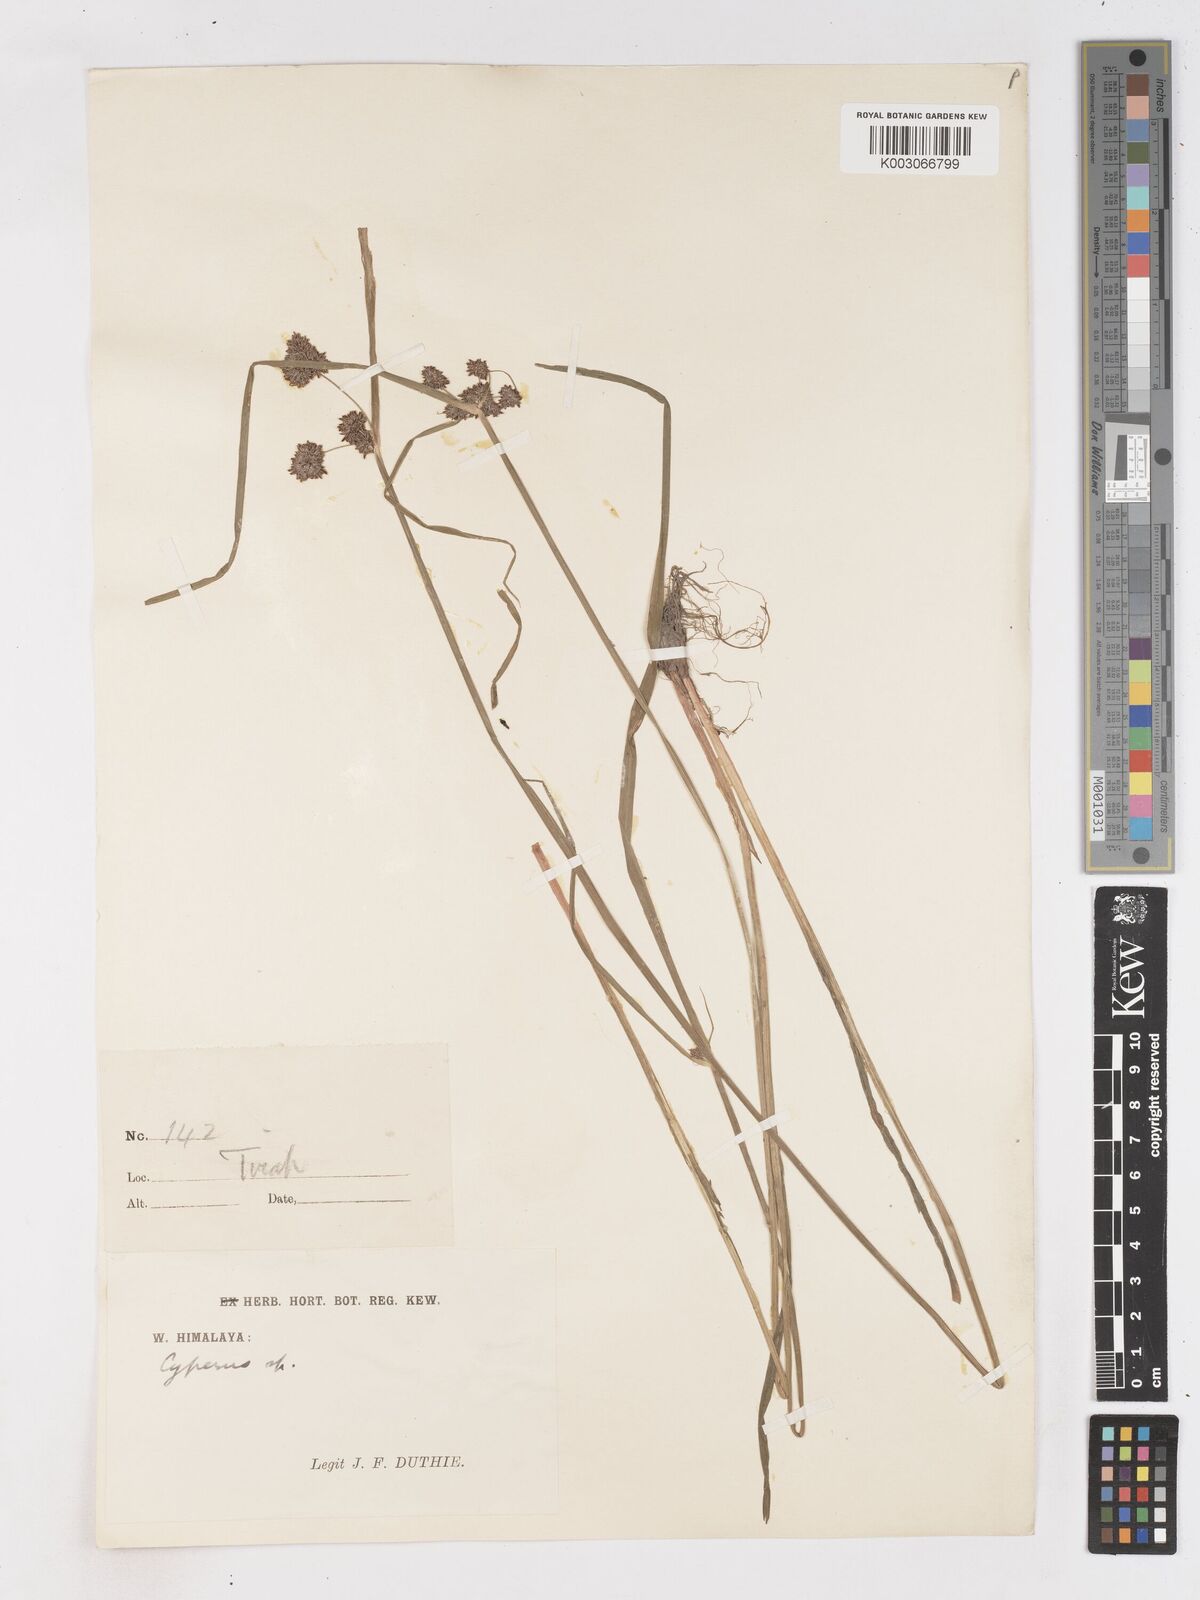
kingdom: Plantae
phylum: Tracheophyta
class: Liliopsida
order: Poales
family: Cyperaceae
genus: Cyperus
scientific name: Cyperus difformis
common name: Variable flatsedge
